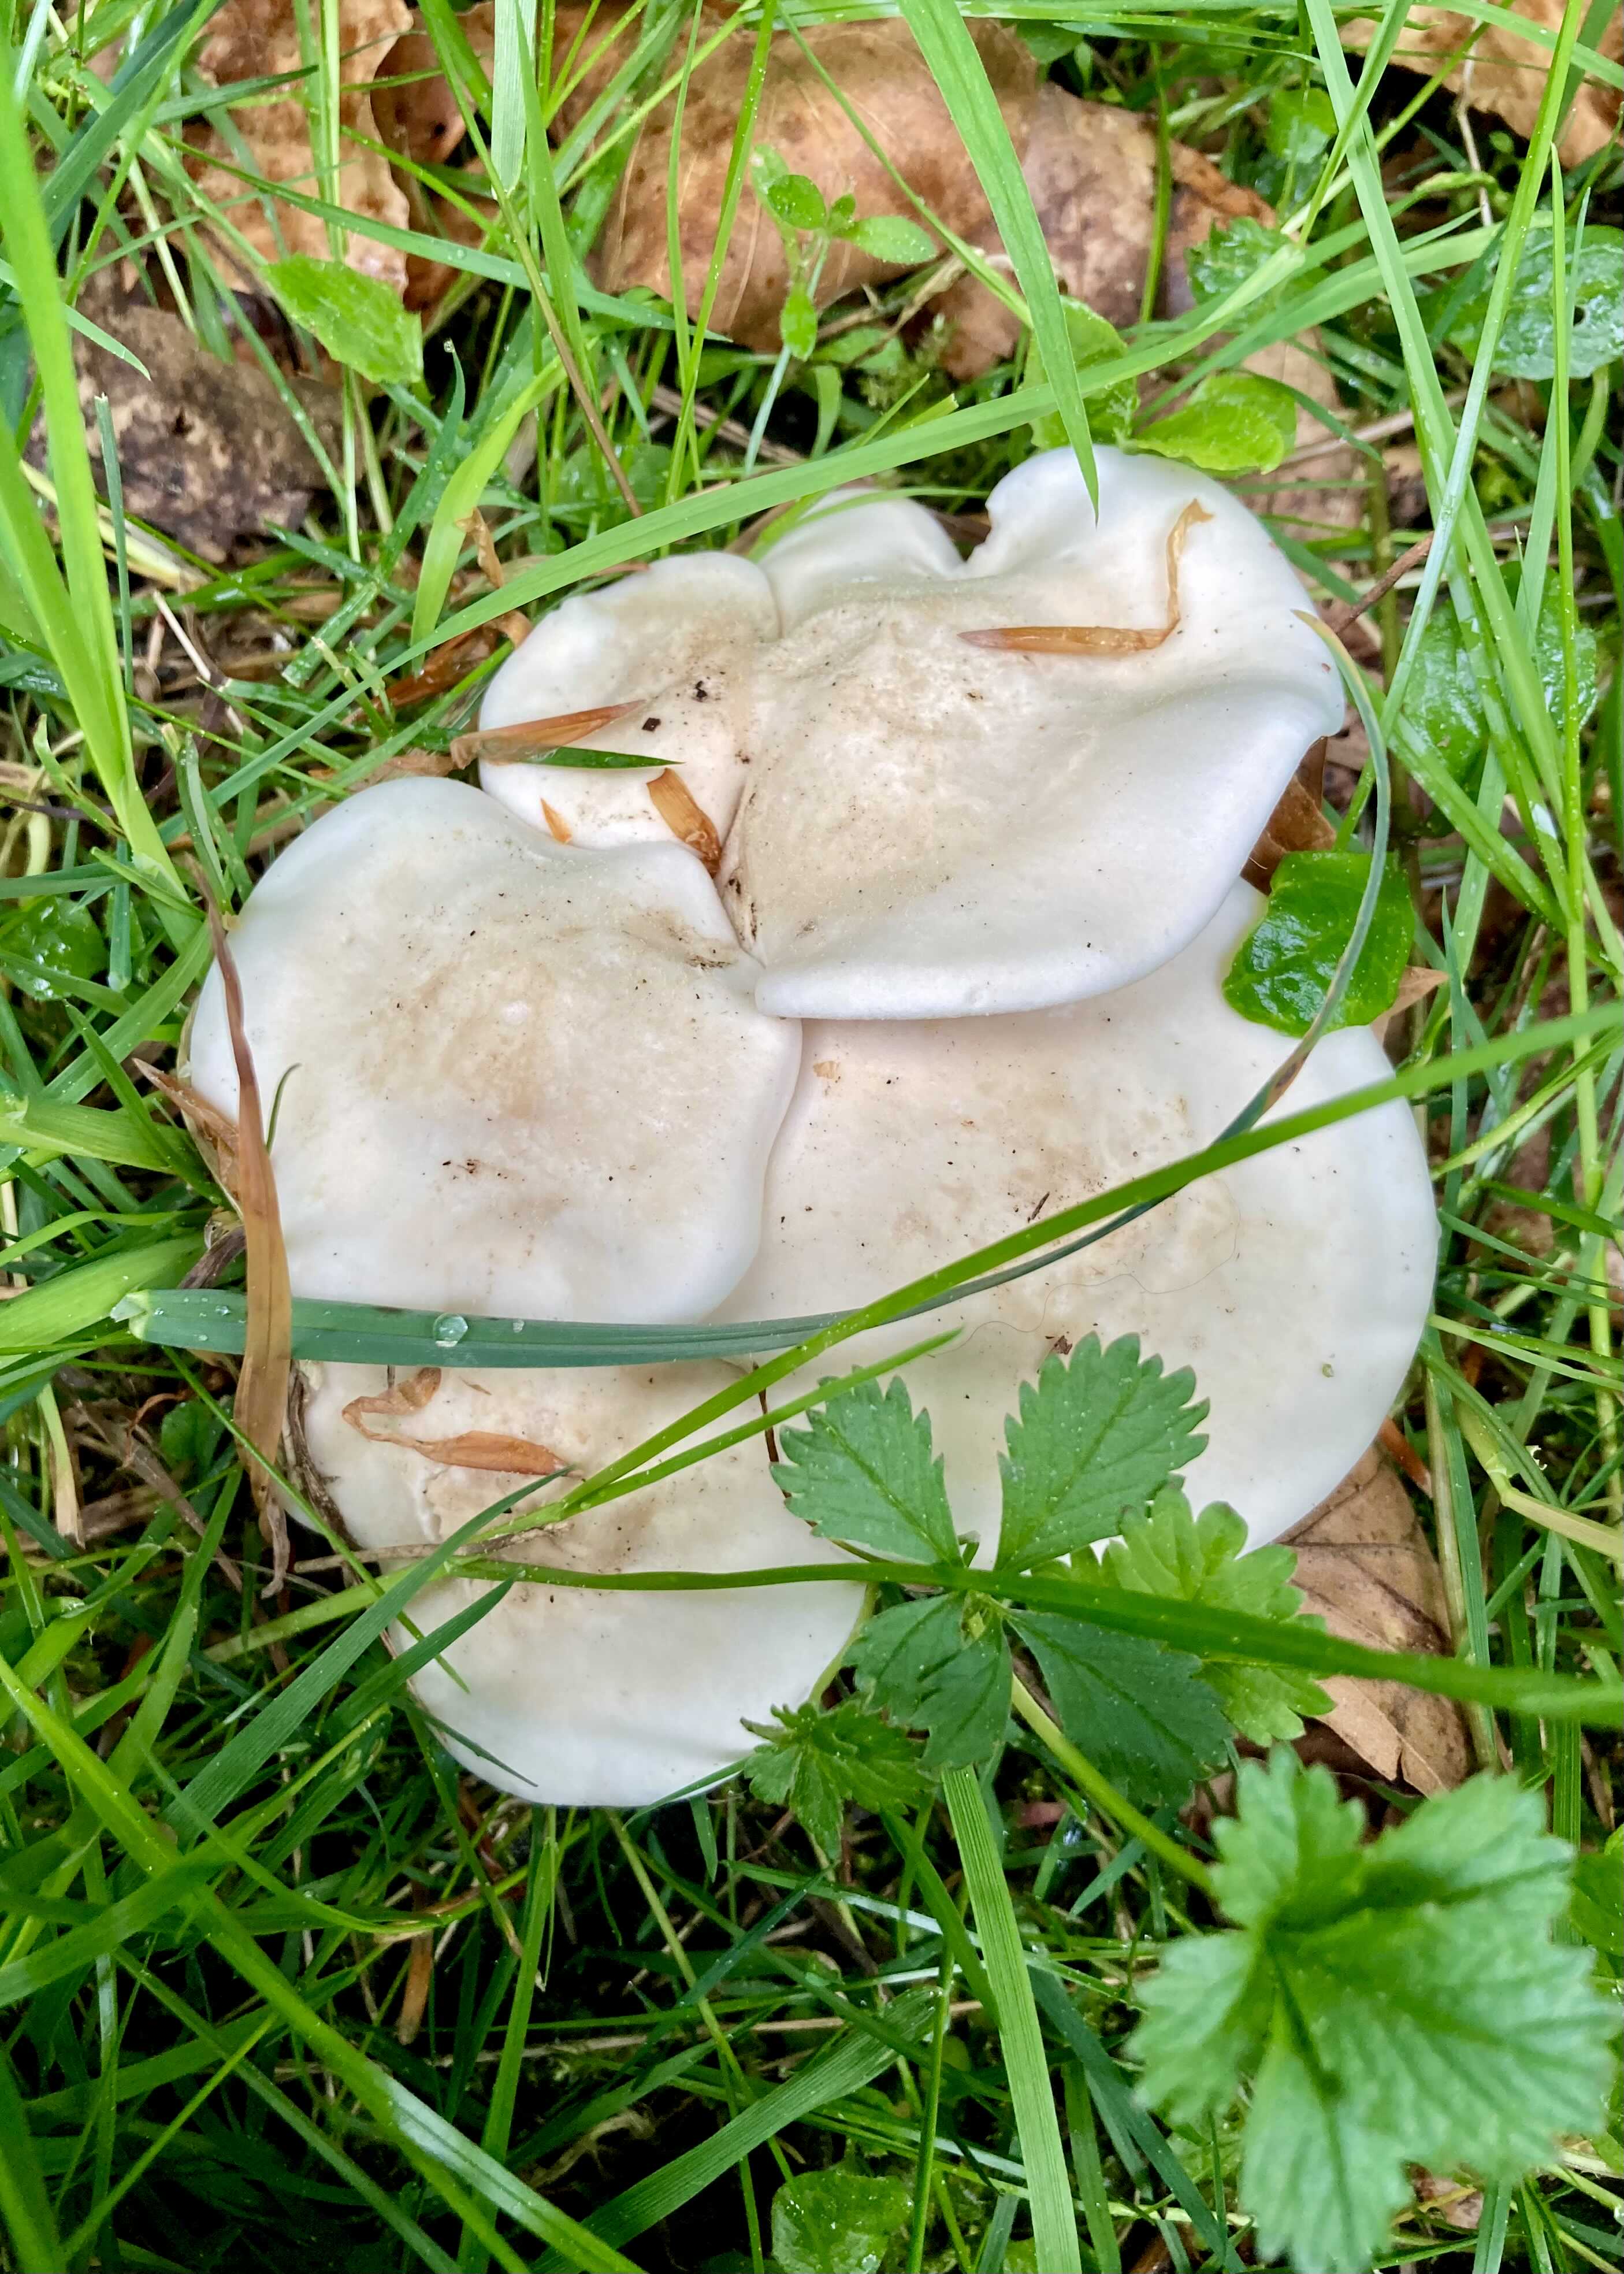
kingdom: Fungi
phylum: Basidiomycota
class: Agaricomycetes
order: Agaricales
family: Lyophyllaceae
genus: Calocybe
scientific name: Calocybe gambosa
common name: vårmusseron
